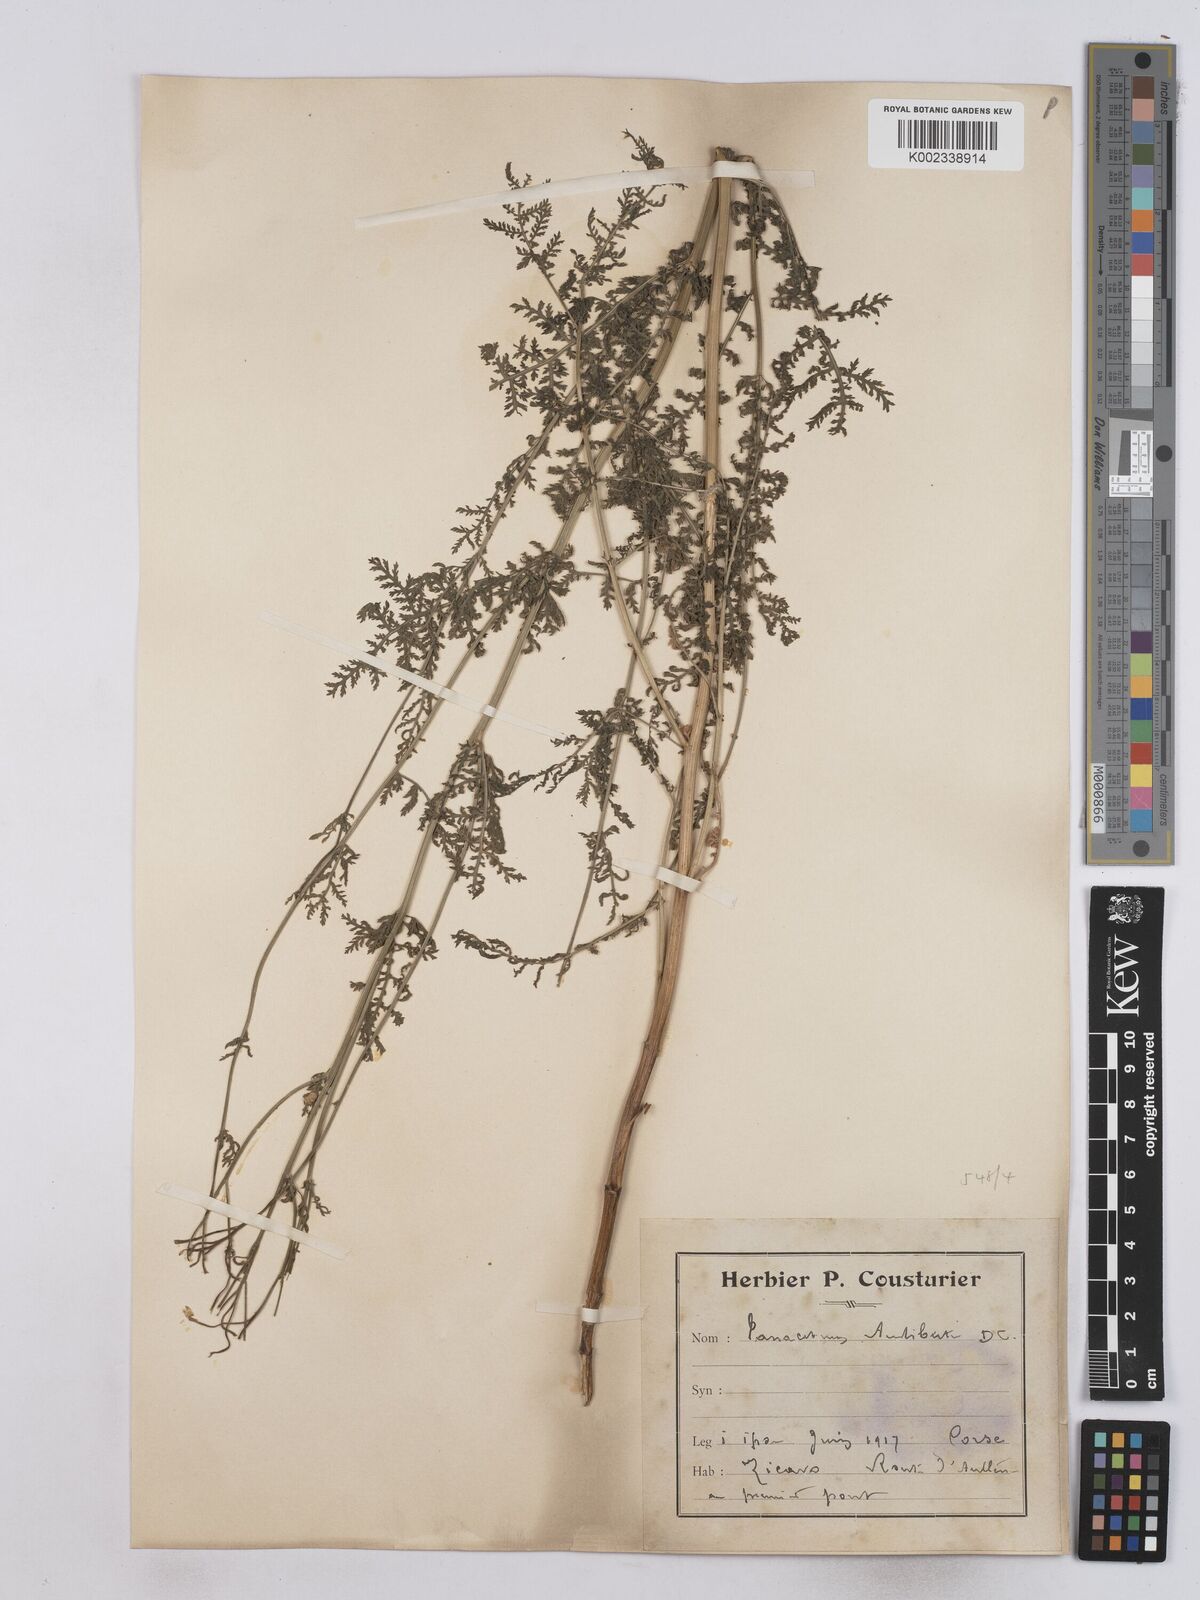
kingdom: Plantae
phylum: Tracheophyta
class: Magnoliopsida
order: Asterales
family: Asteraceae
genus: Tanacetum
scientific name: Tanacetum audibertii
